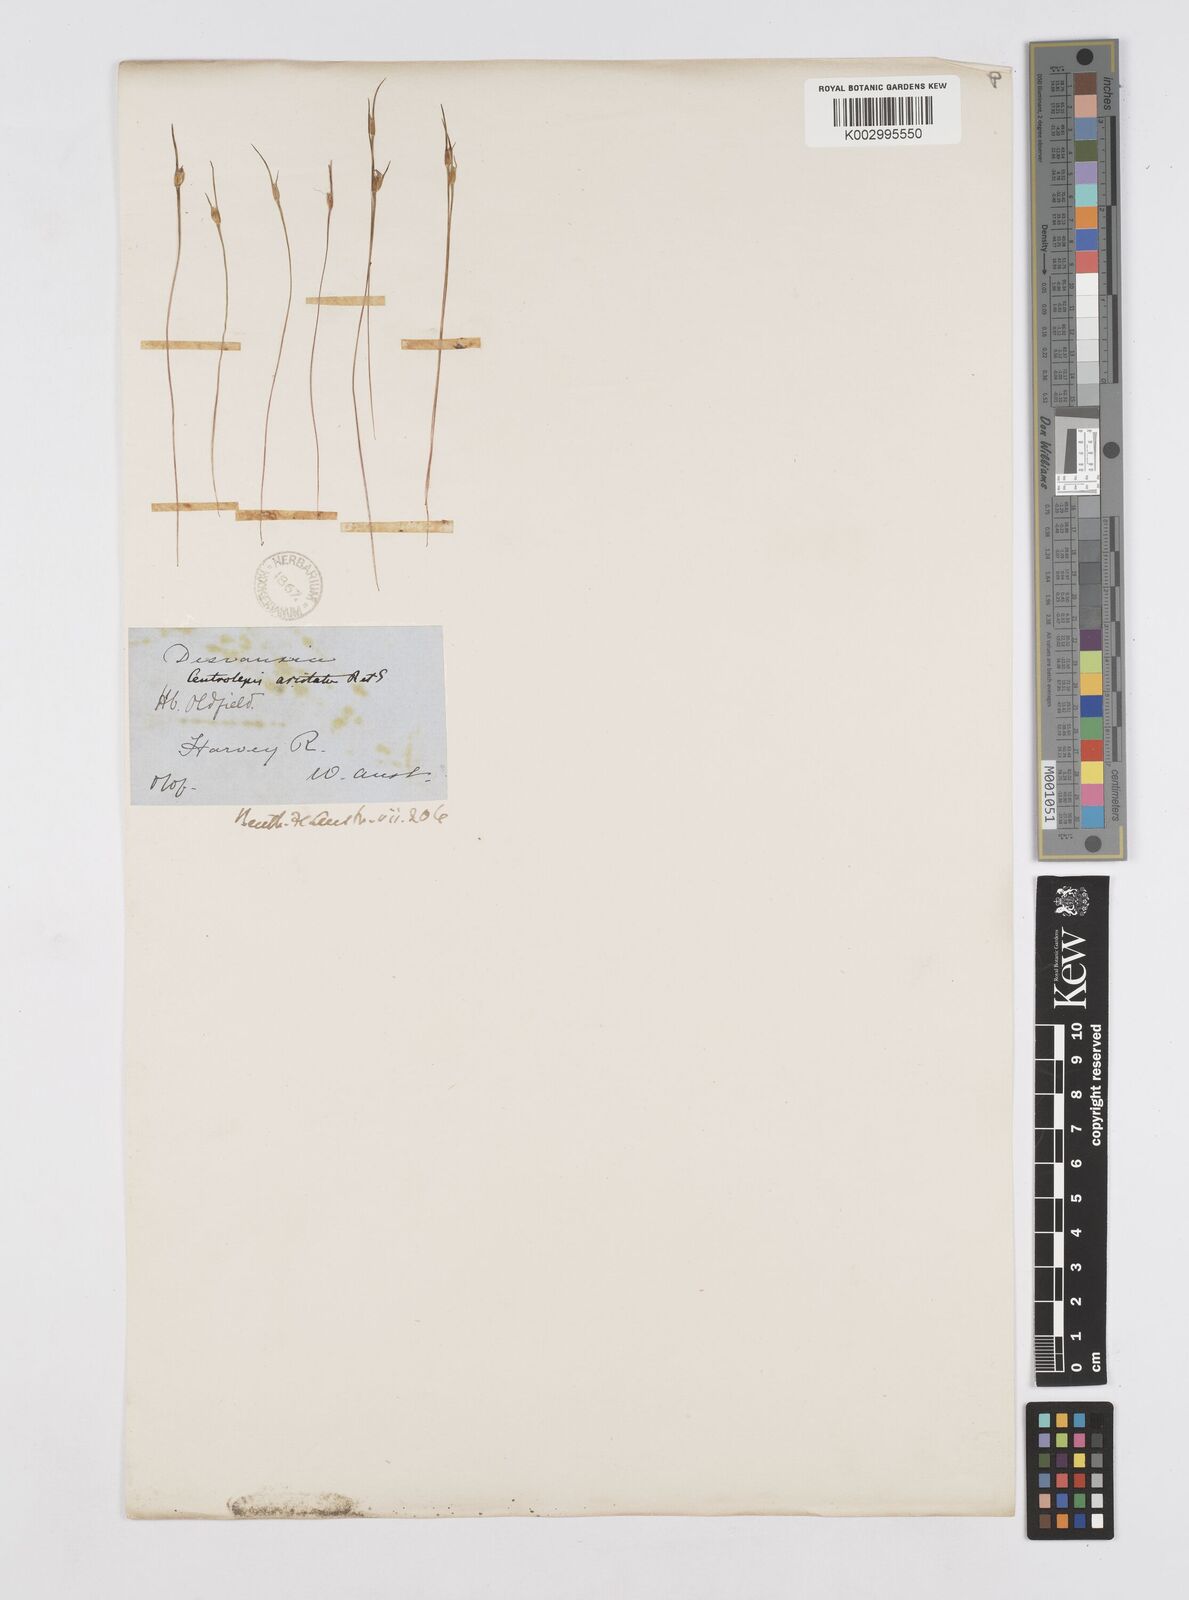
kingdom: Plantae
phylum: Tracheophyta
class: Liliopsida
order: Poales
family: Restionaceae
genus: Centrolepis
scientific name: Centrolepis aristata
